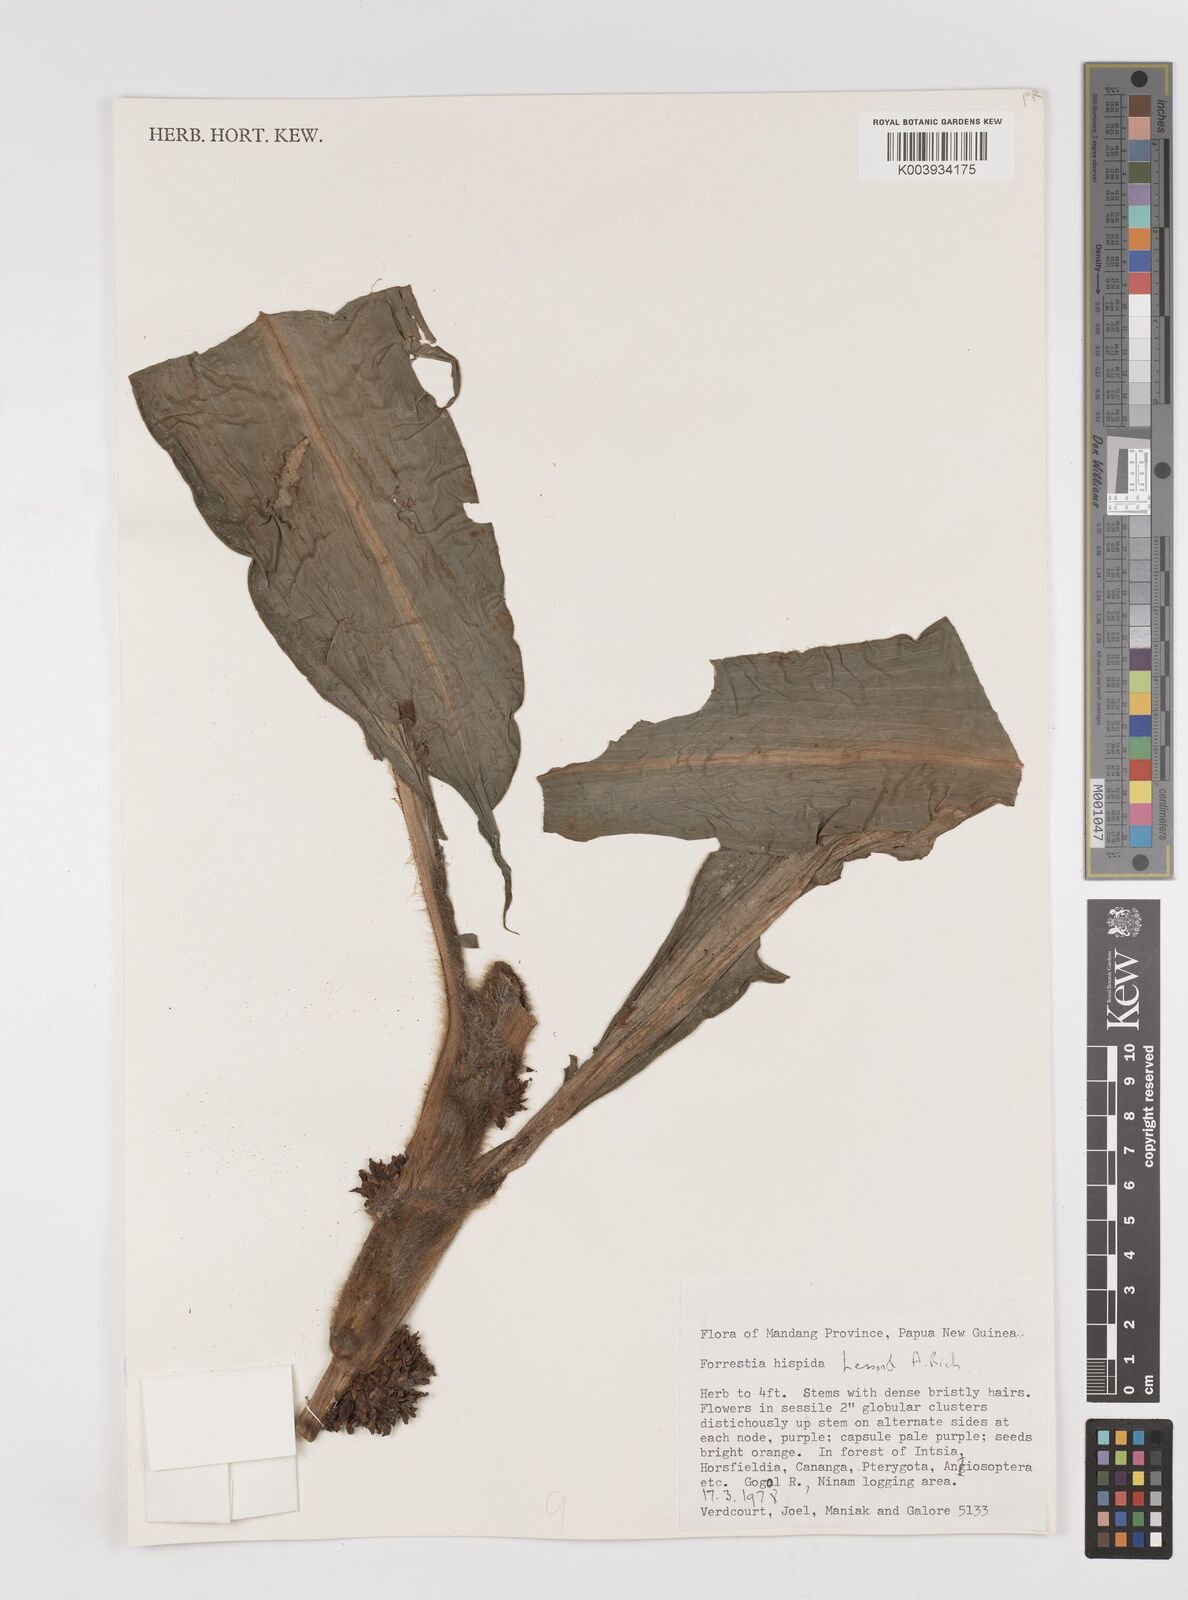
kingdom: Plantae
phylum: Tracheophyta
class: Liliopsida
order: Commelinales
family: Commelinaceae
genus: Amischotolype
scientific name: Amischotolype hispida
